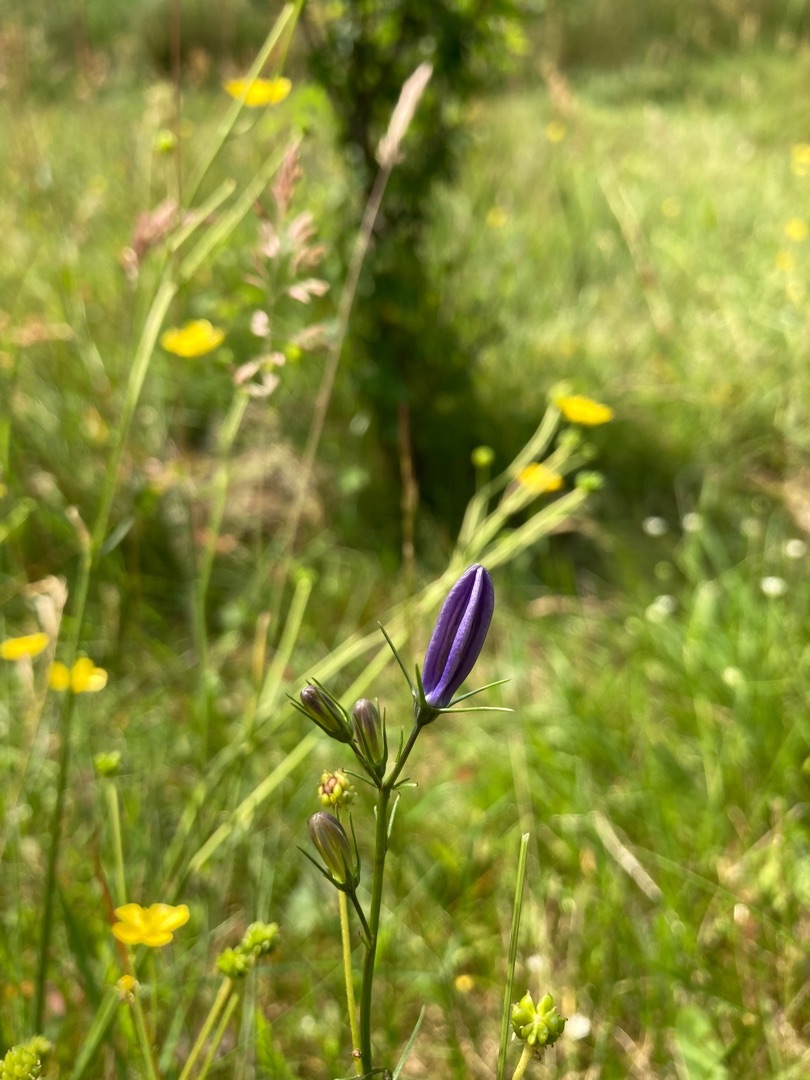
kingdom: Plantae
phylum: Tracheophyta
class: Magnoliopsida
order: Asterales
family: Campanulaceae
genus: Campanula
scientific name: Campanula rotundifolia
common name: Liden klokke
